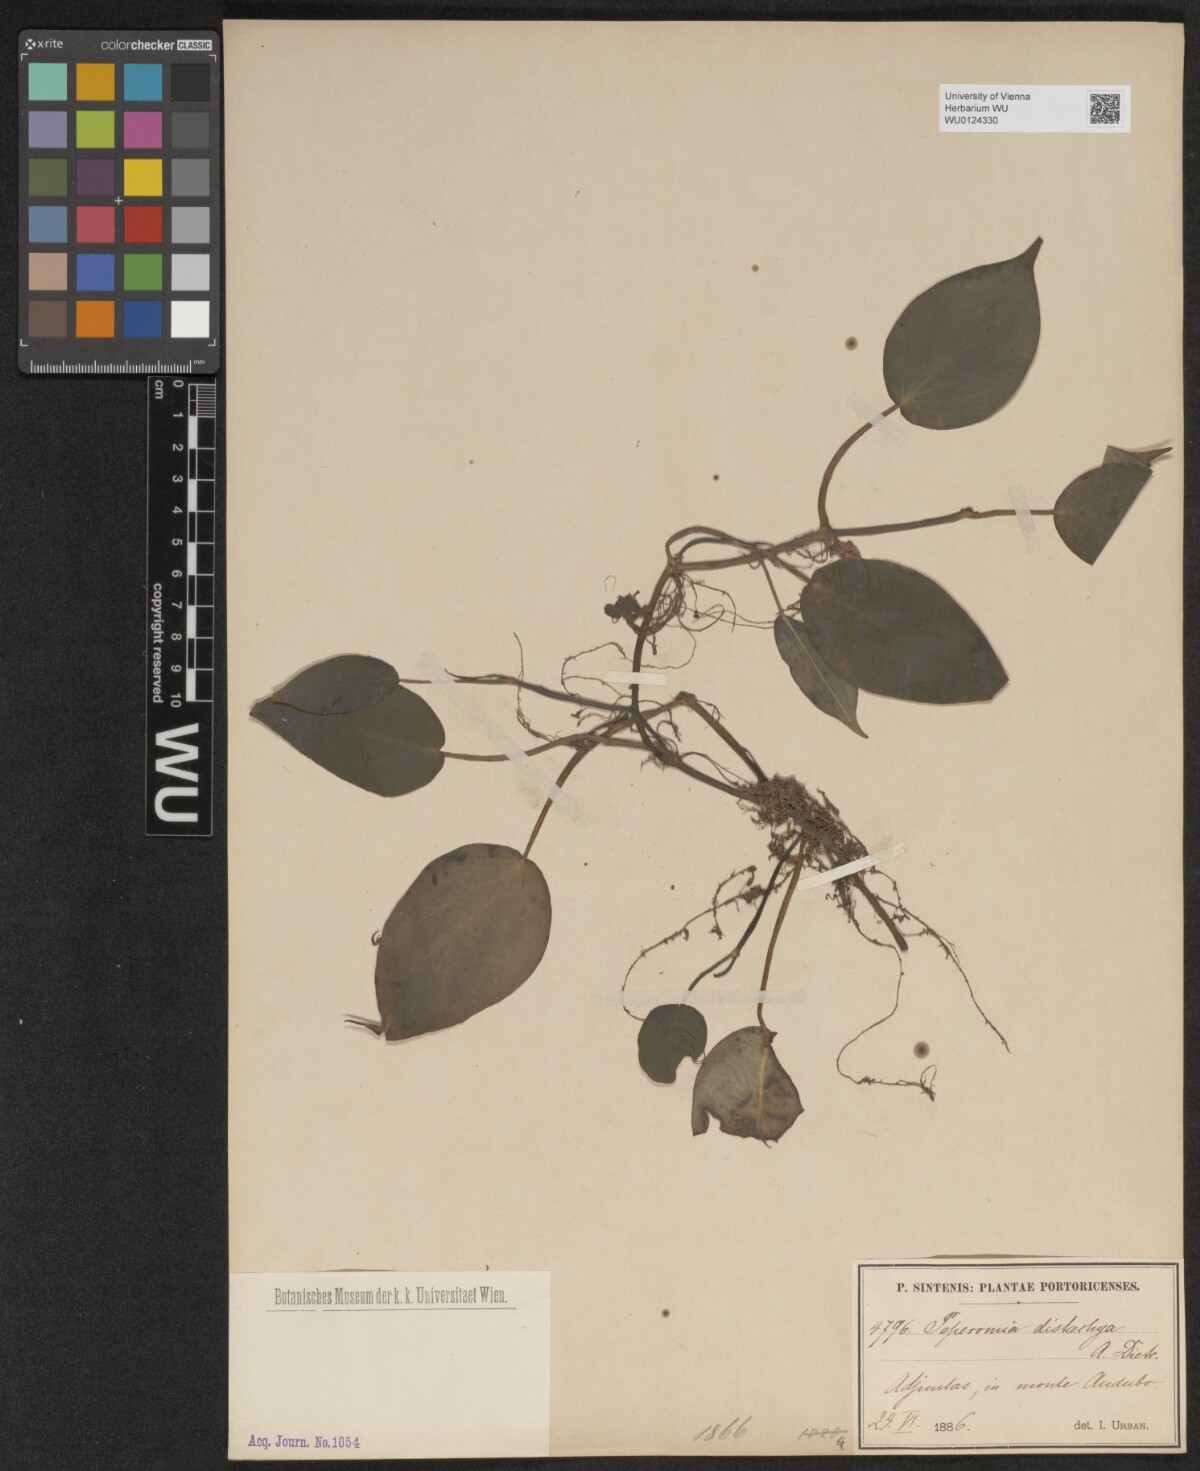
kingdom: Plantae
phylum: Tracheophyta
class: Magnoliopsida
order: Piperales
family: Piperaceae
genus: Peperomia
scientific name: Peperomia distachyos
